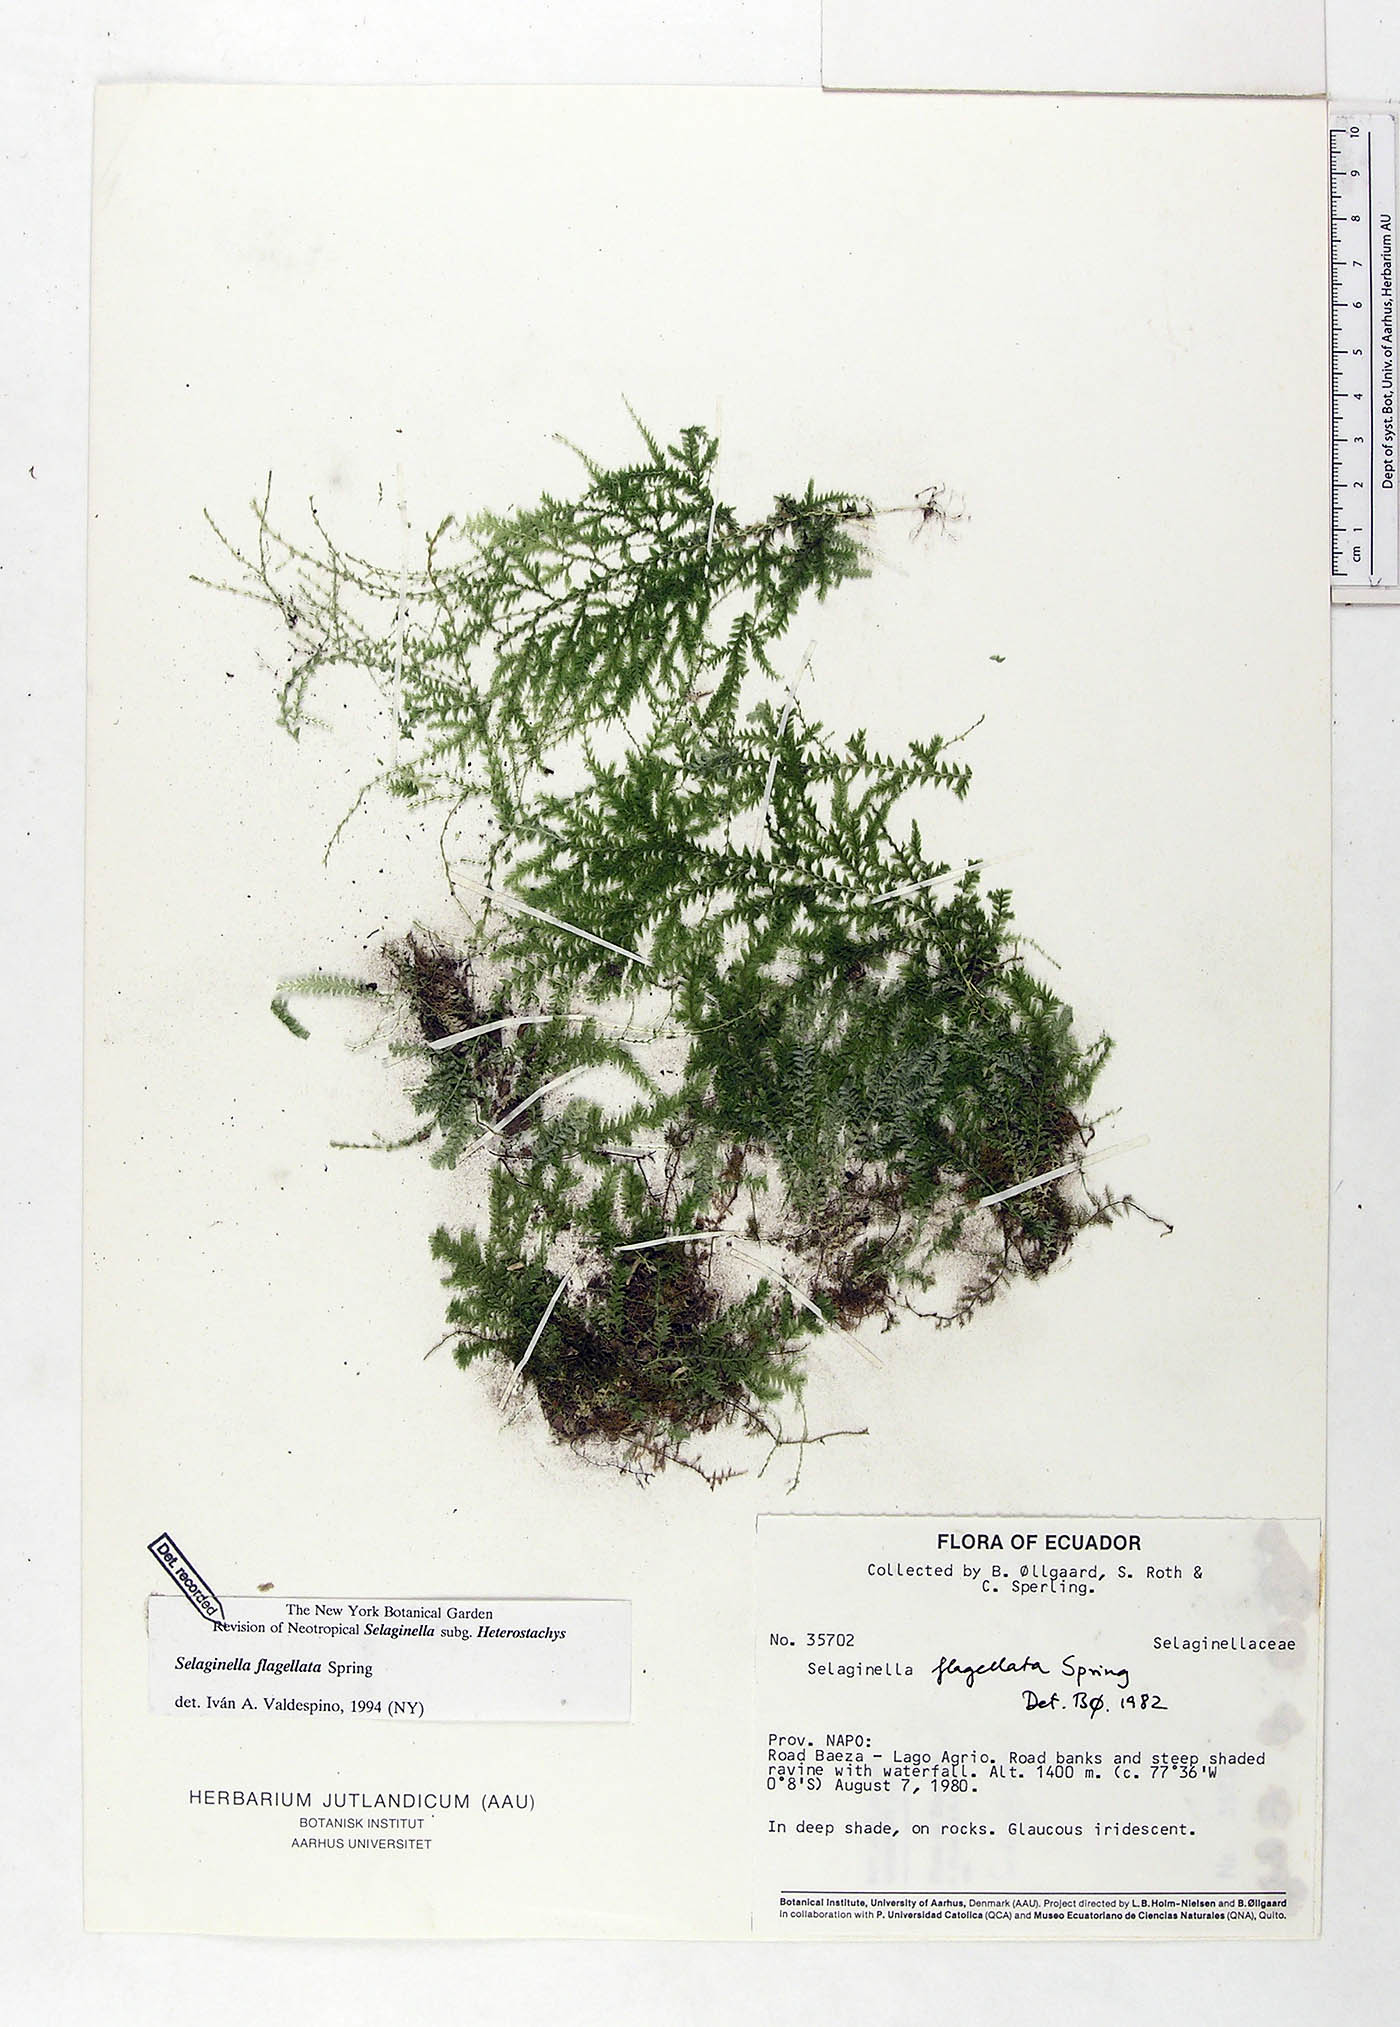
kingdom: Plantae
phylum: Tracheophyta
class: Lycopodiopsida
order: Selaginellales
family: Selaginellaceae
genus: Selaginella
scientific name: Selaginella flagellata
